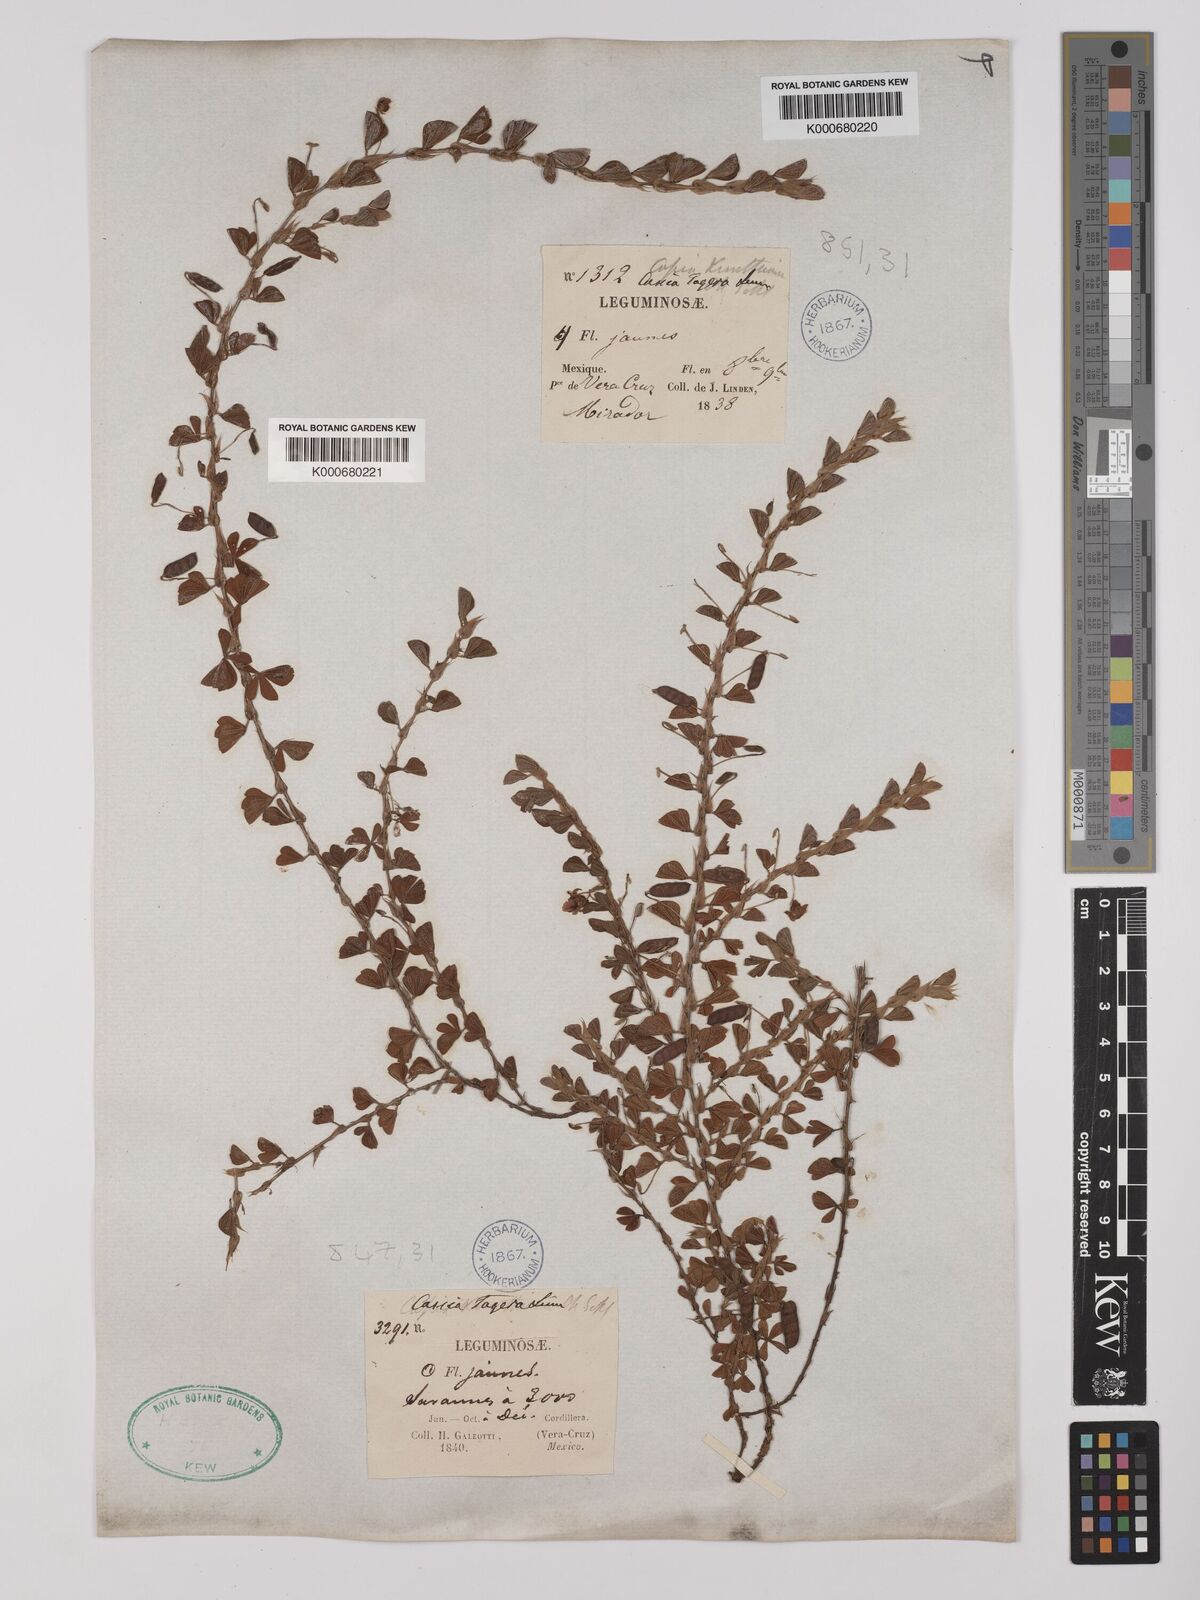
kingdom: Plantae
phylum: Tracheophyta
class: Magnoliopsida
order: Fabales
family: Fabaceae
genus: Chamaecrista
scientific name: Chamaecrista kunthiana
